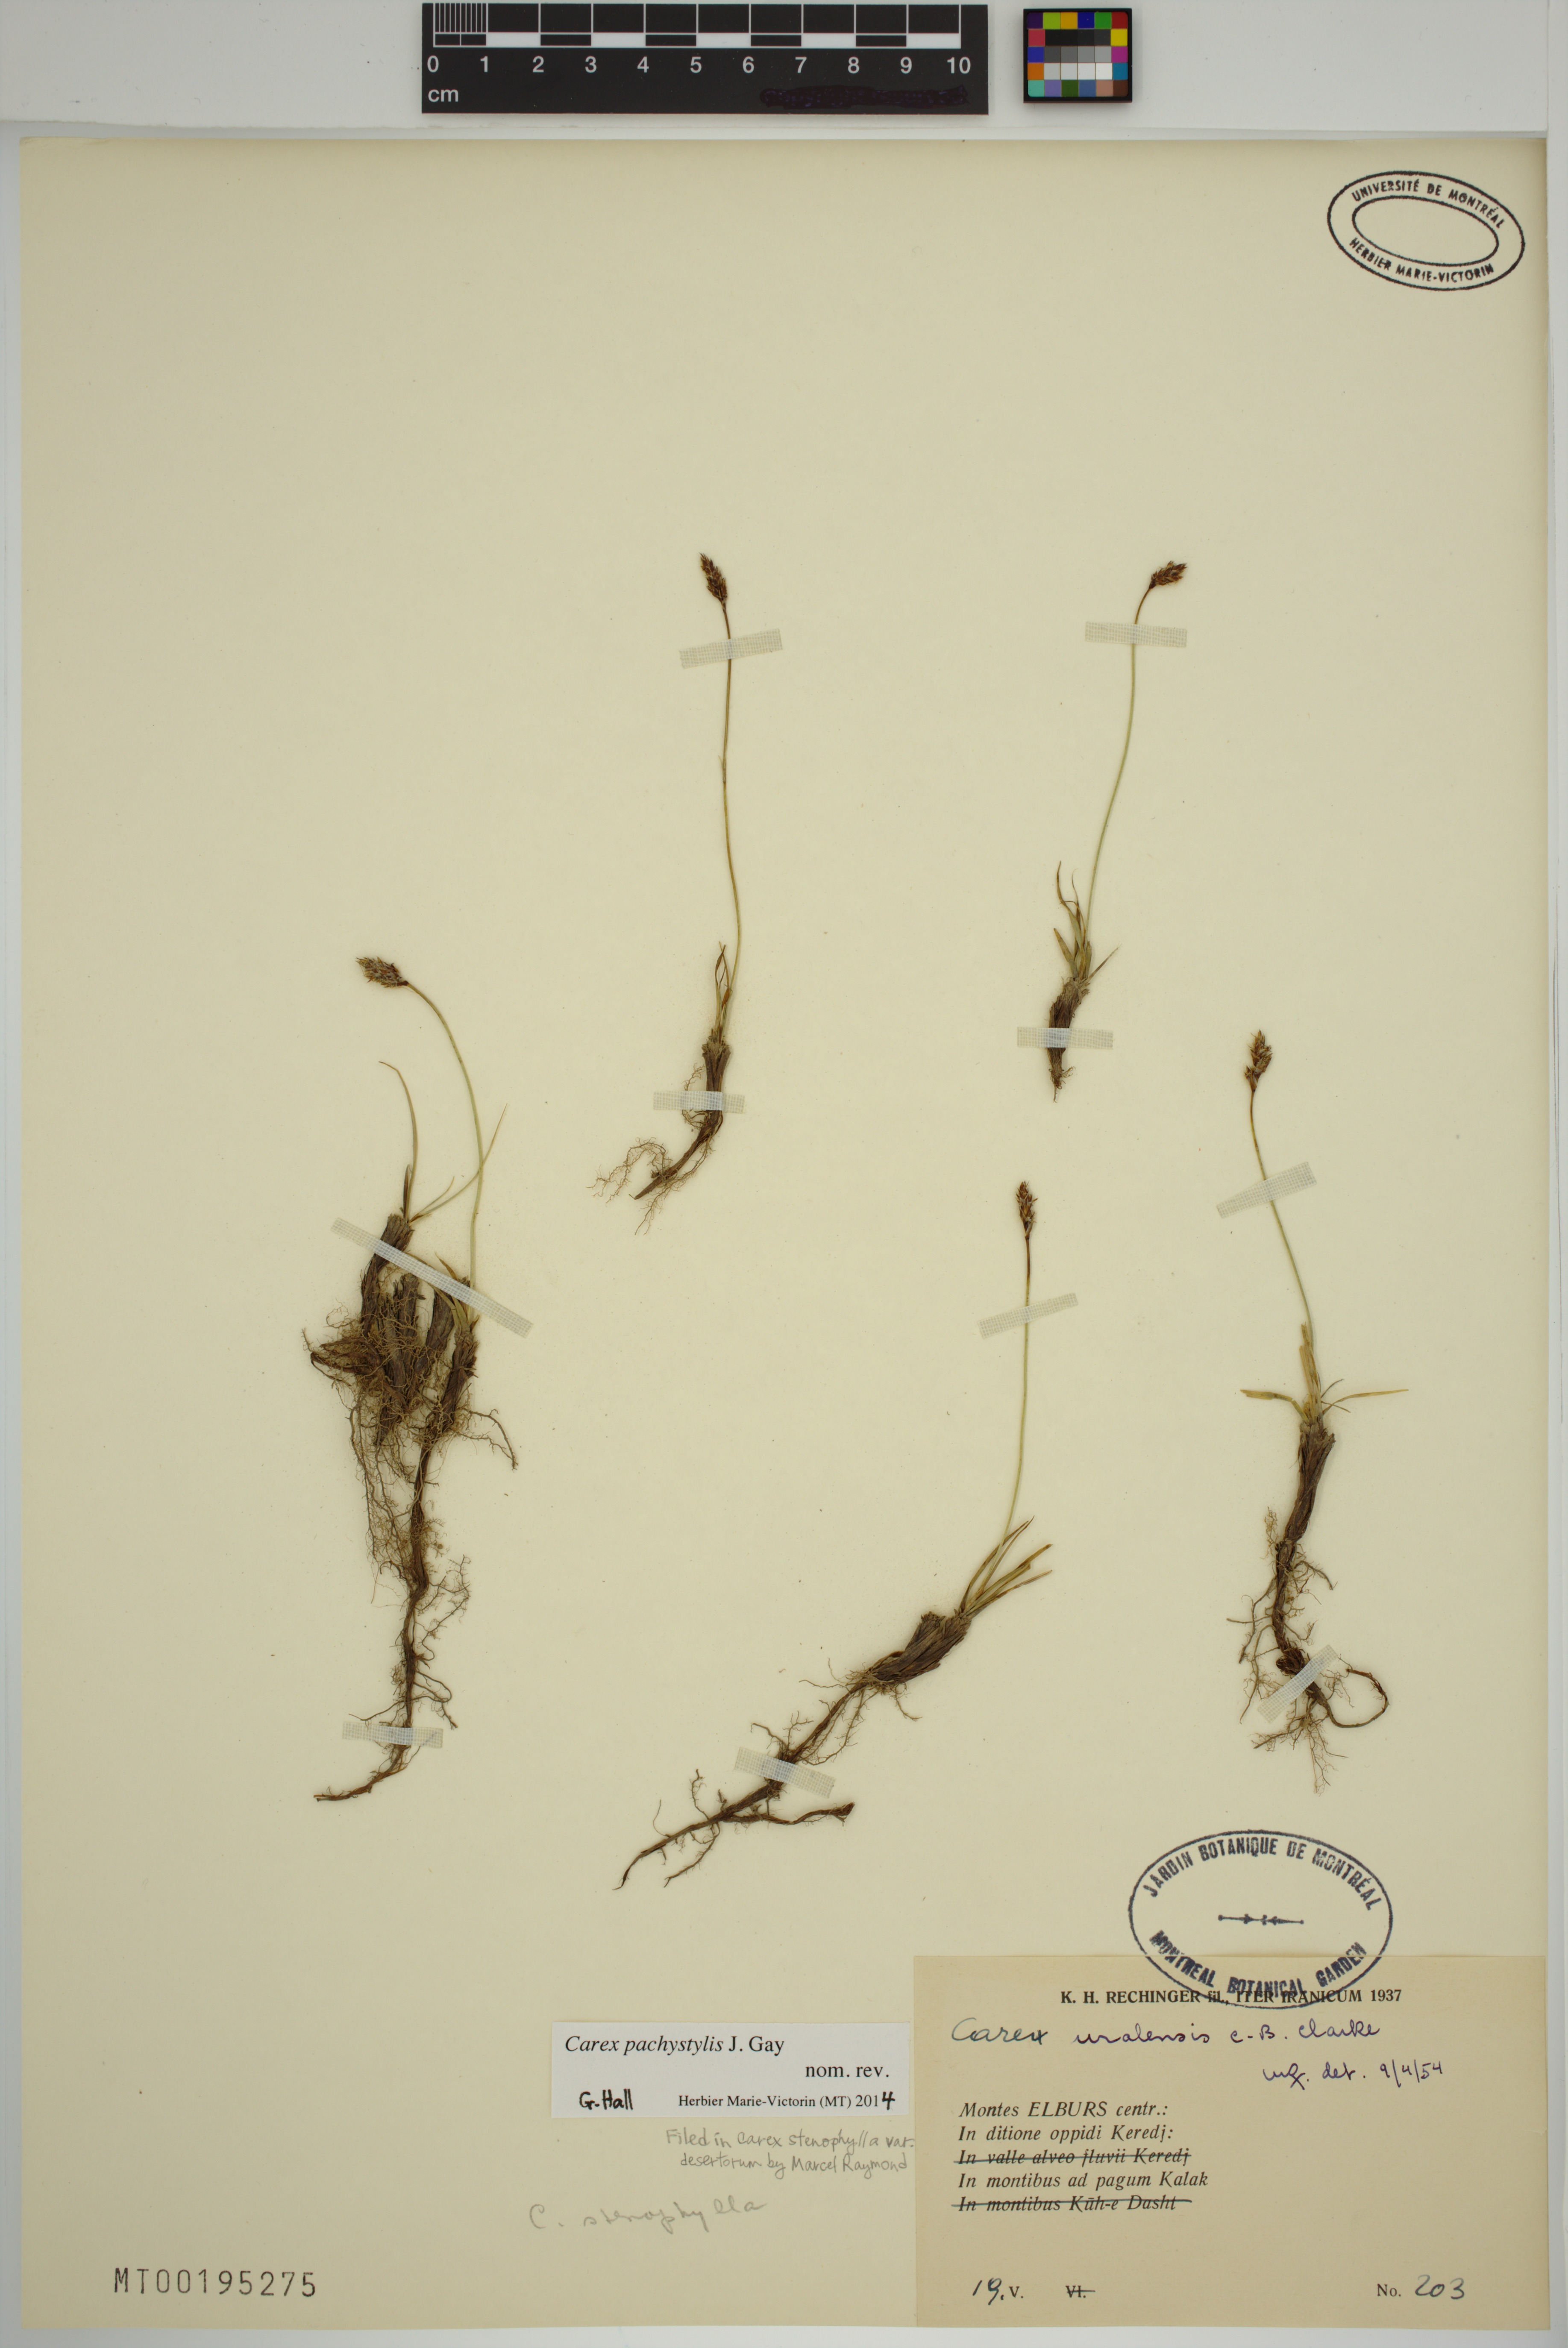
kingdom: Plantae
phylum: Tracheophyta
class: Liliopsida
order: Poales
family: Cyperaceae
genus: Carex
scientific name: Carex pachystylis
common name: Thick-stem sedge
